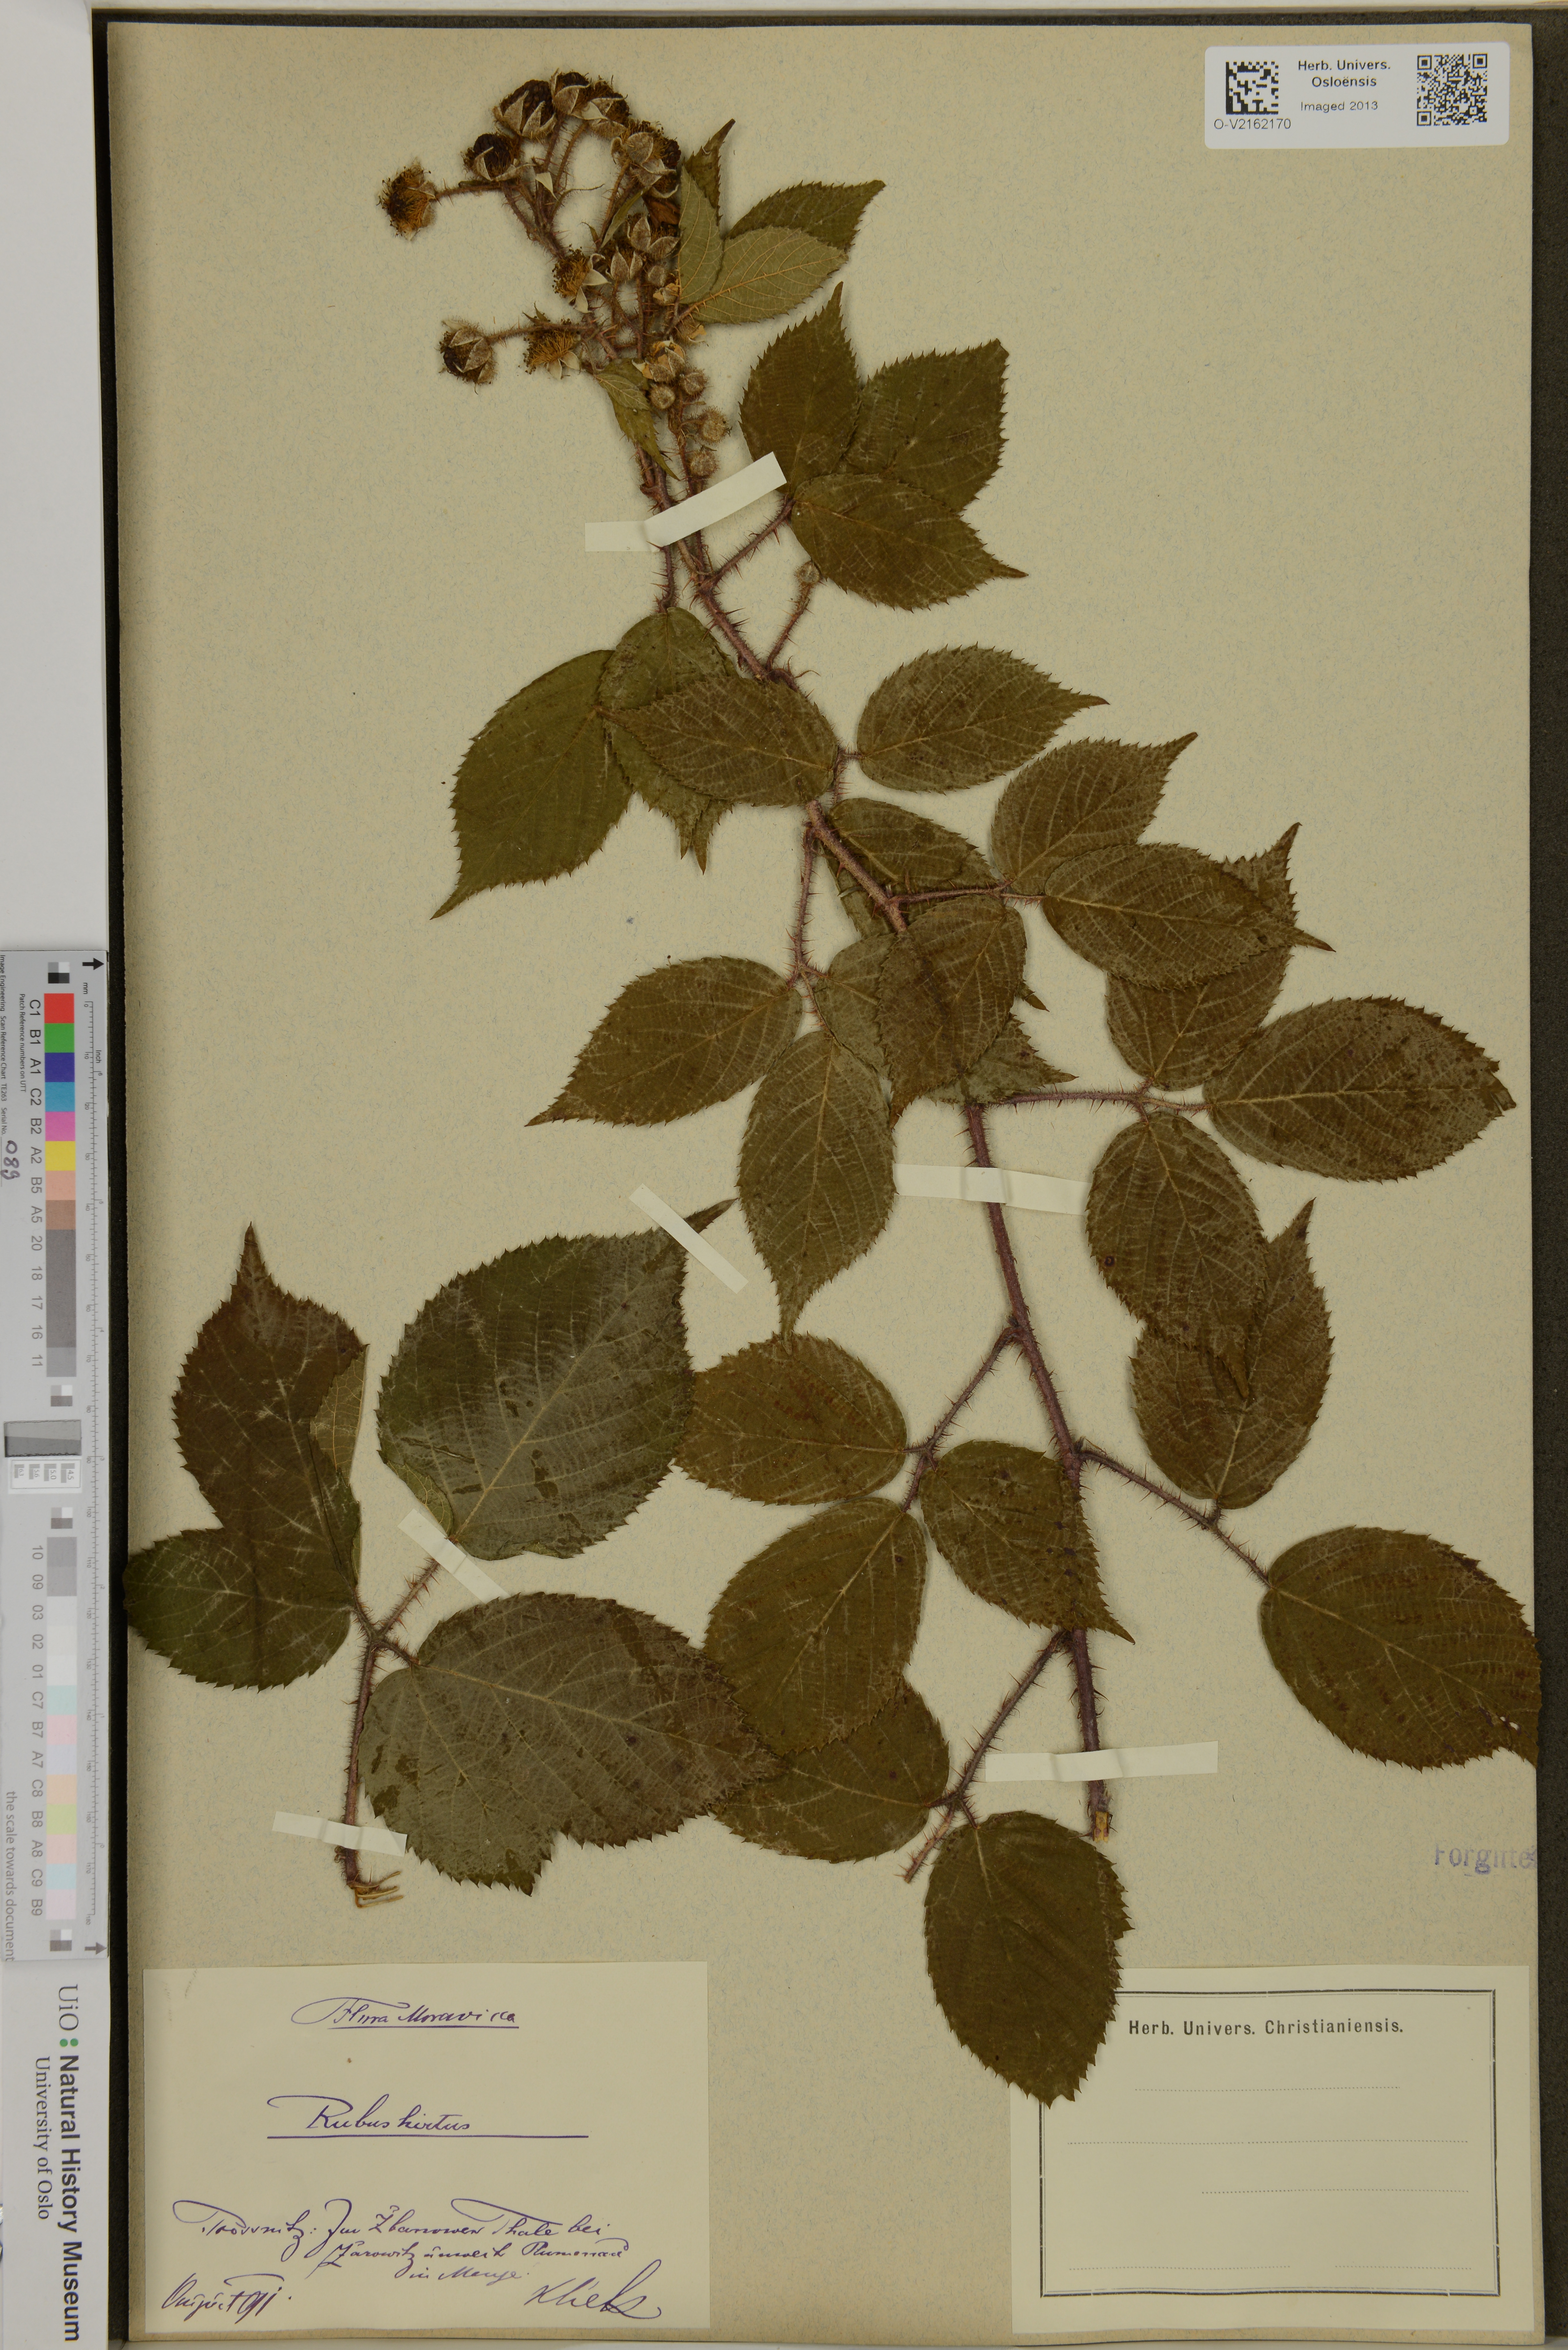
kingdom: Plantae
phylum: Tracheophyta
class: Magnoliopsida
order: Rosales
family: Rosaceae
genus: Rubus
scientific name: Rubus hirtus
